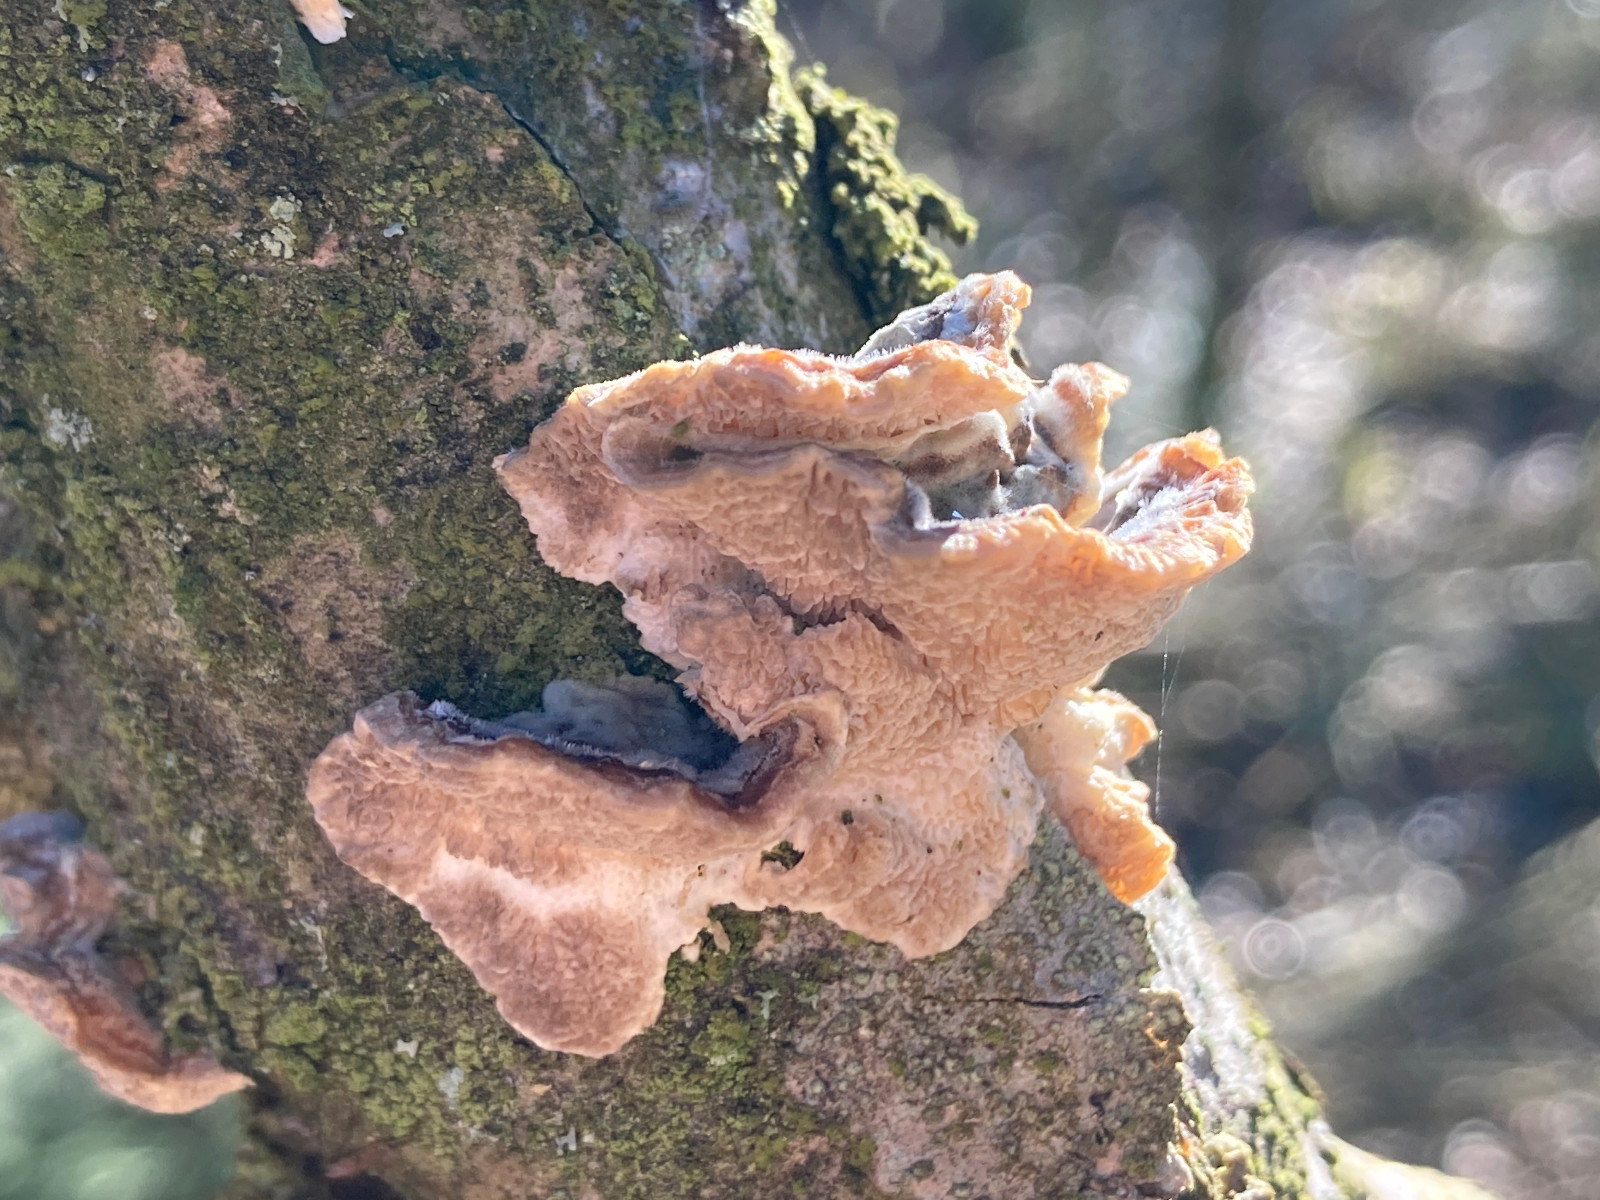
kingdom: Fungi
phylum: Basidiomycota
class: Agaricomycetes
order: Polyporales
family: Polyporaceae
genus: Trametes
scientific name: Trametes
